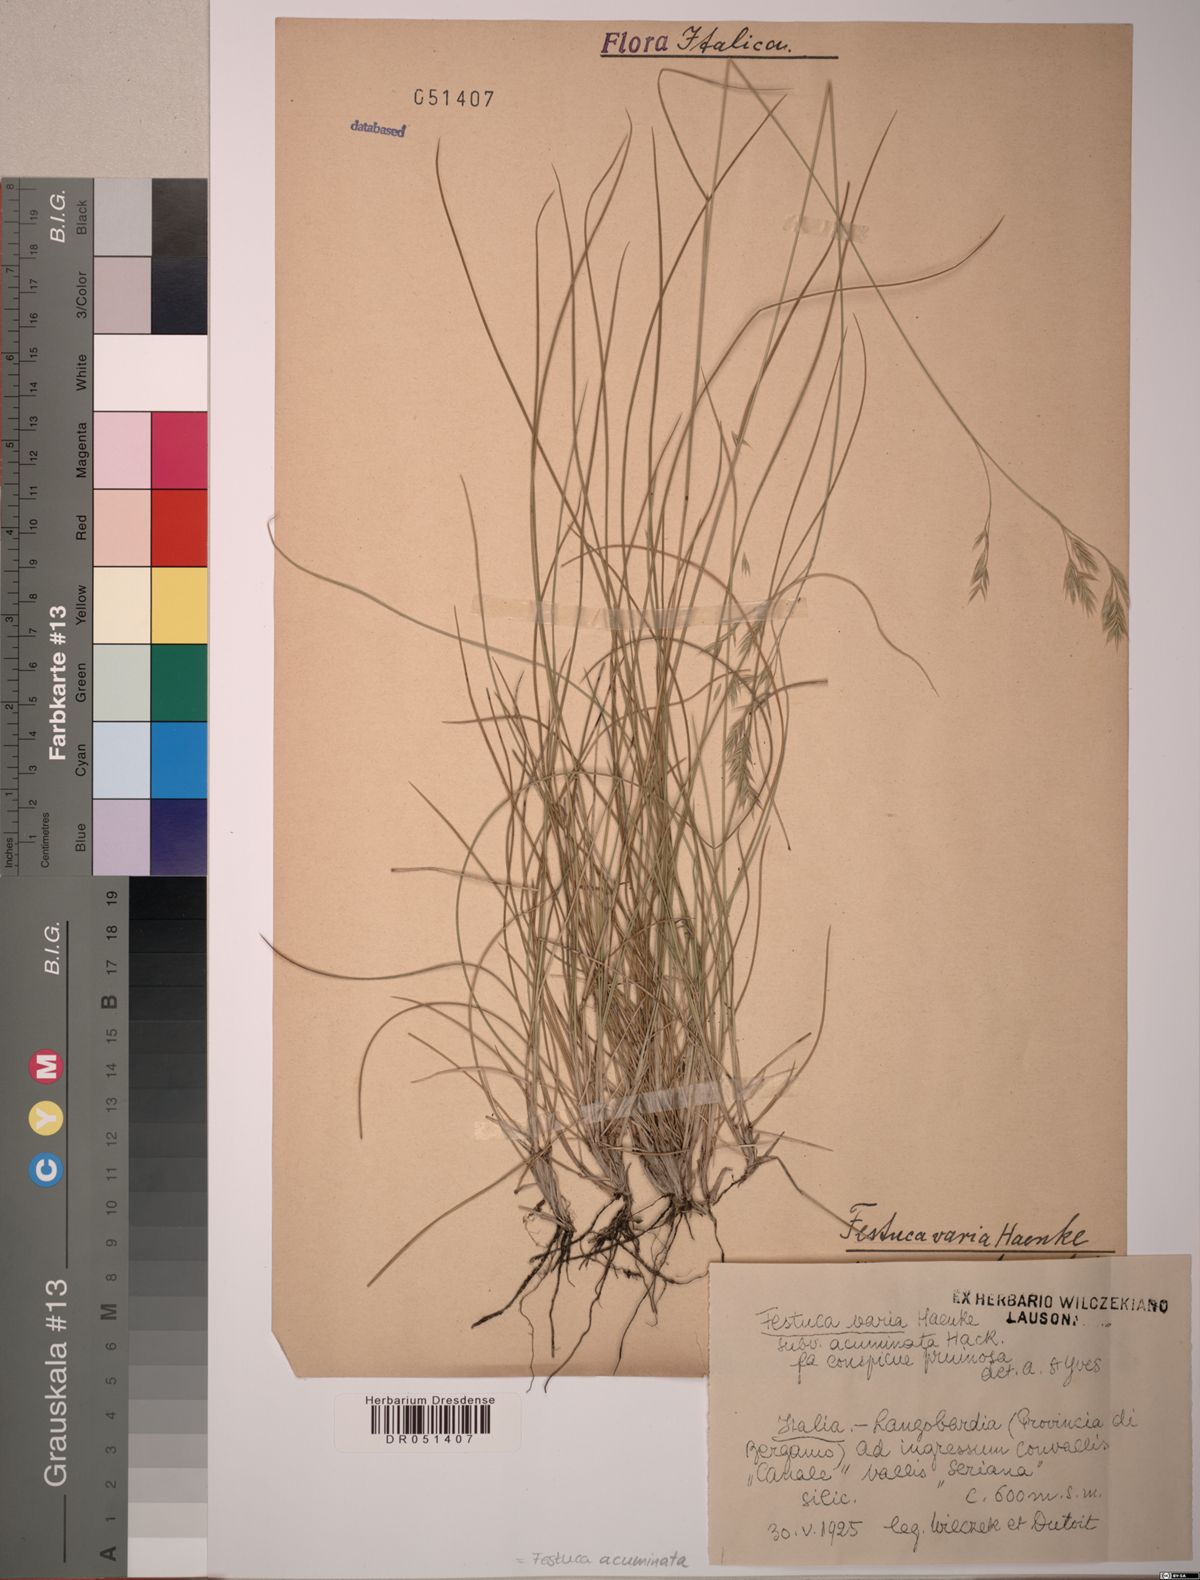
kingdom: Plantae
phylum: Tracheophyta
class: Liliopsida
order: Poales
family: Poaceae
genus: Festuca
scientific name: Festuca acuminata
